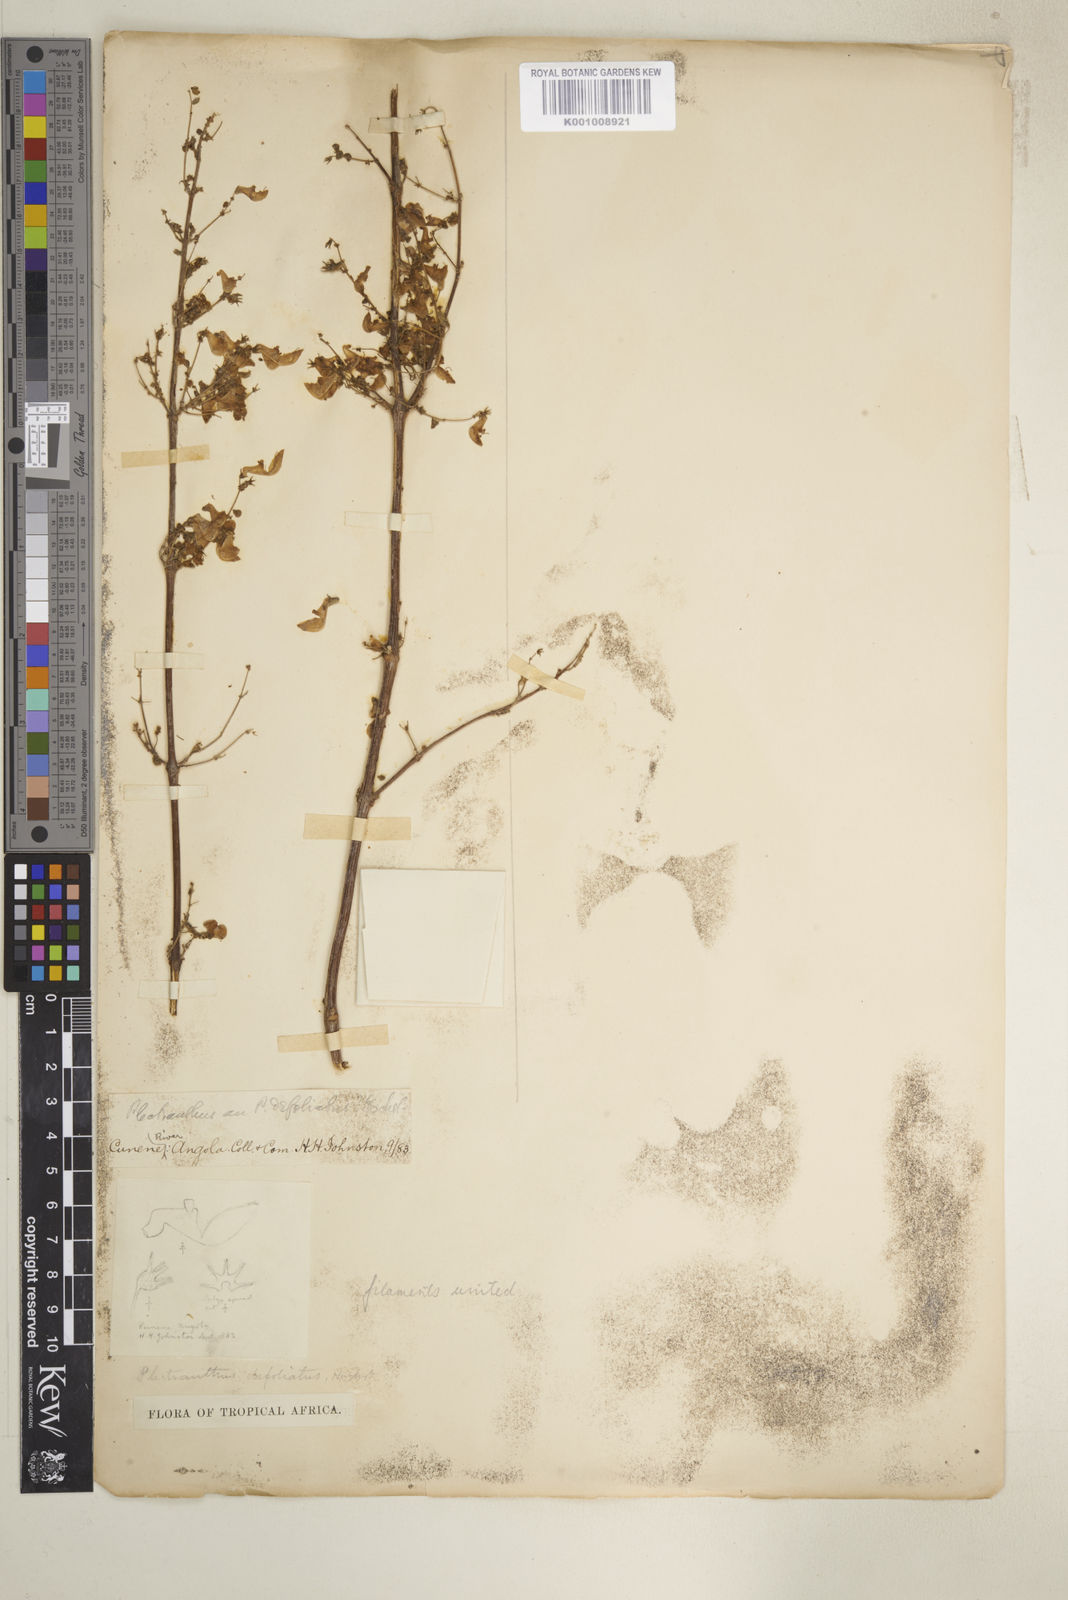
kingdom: Plantae
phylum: Tracheophyta
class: Magnoliopsida
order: Lamiales
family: Lamiaceae
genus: Coleus
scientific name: Coleus defoliatus
